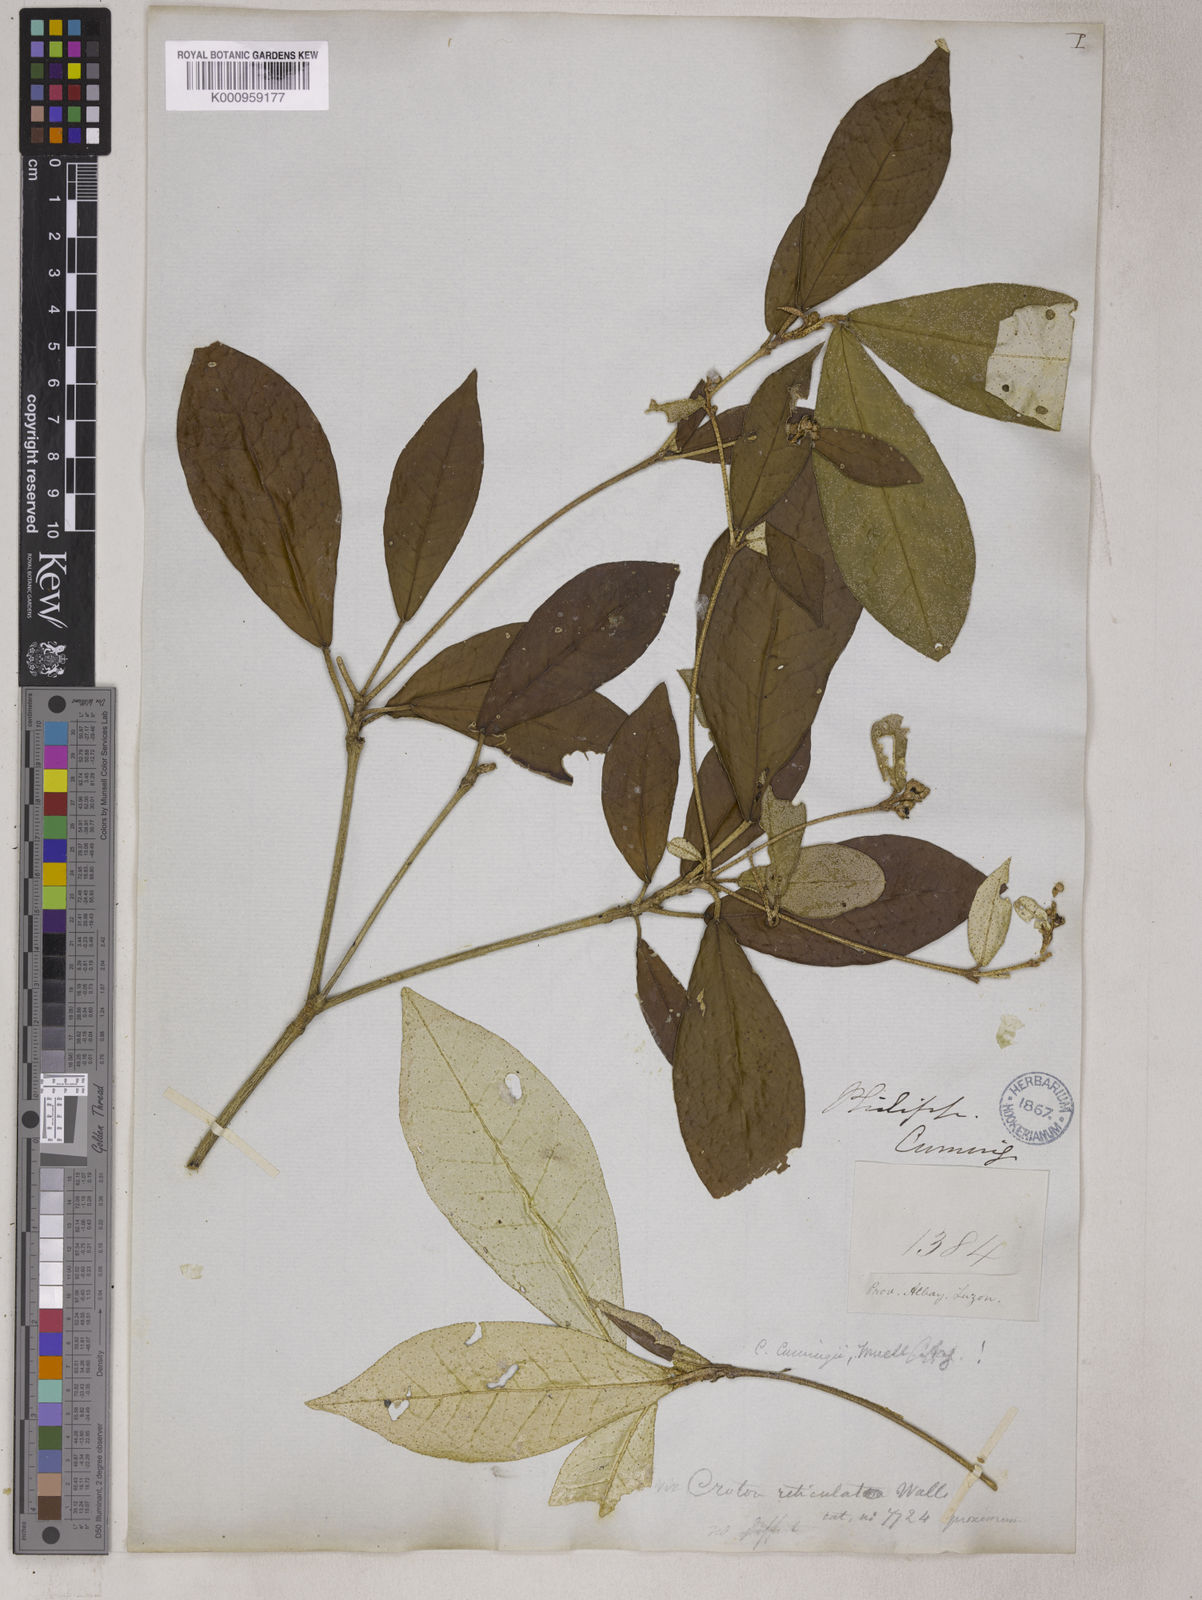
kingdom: Plantae
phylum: Tracheophyta
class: Magnoliopsida
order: Malpighiales
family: Euphorbiaceae
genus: Croton
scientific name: Croton cascarilloides
